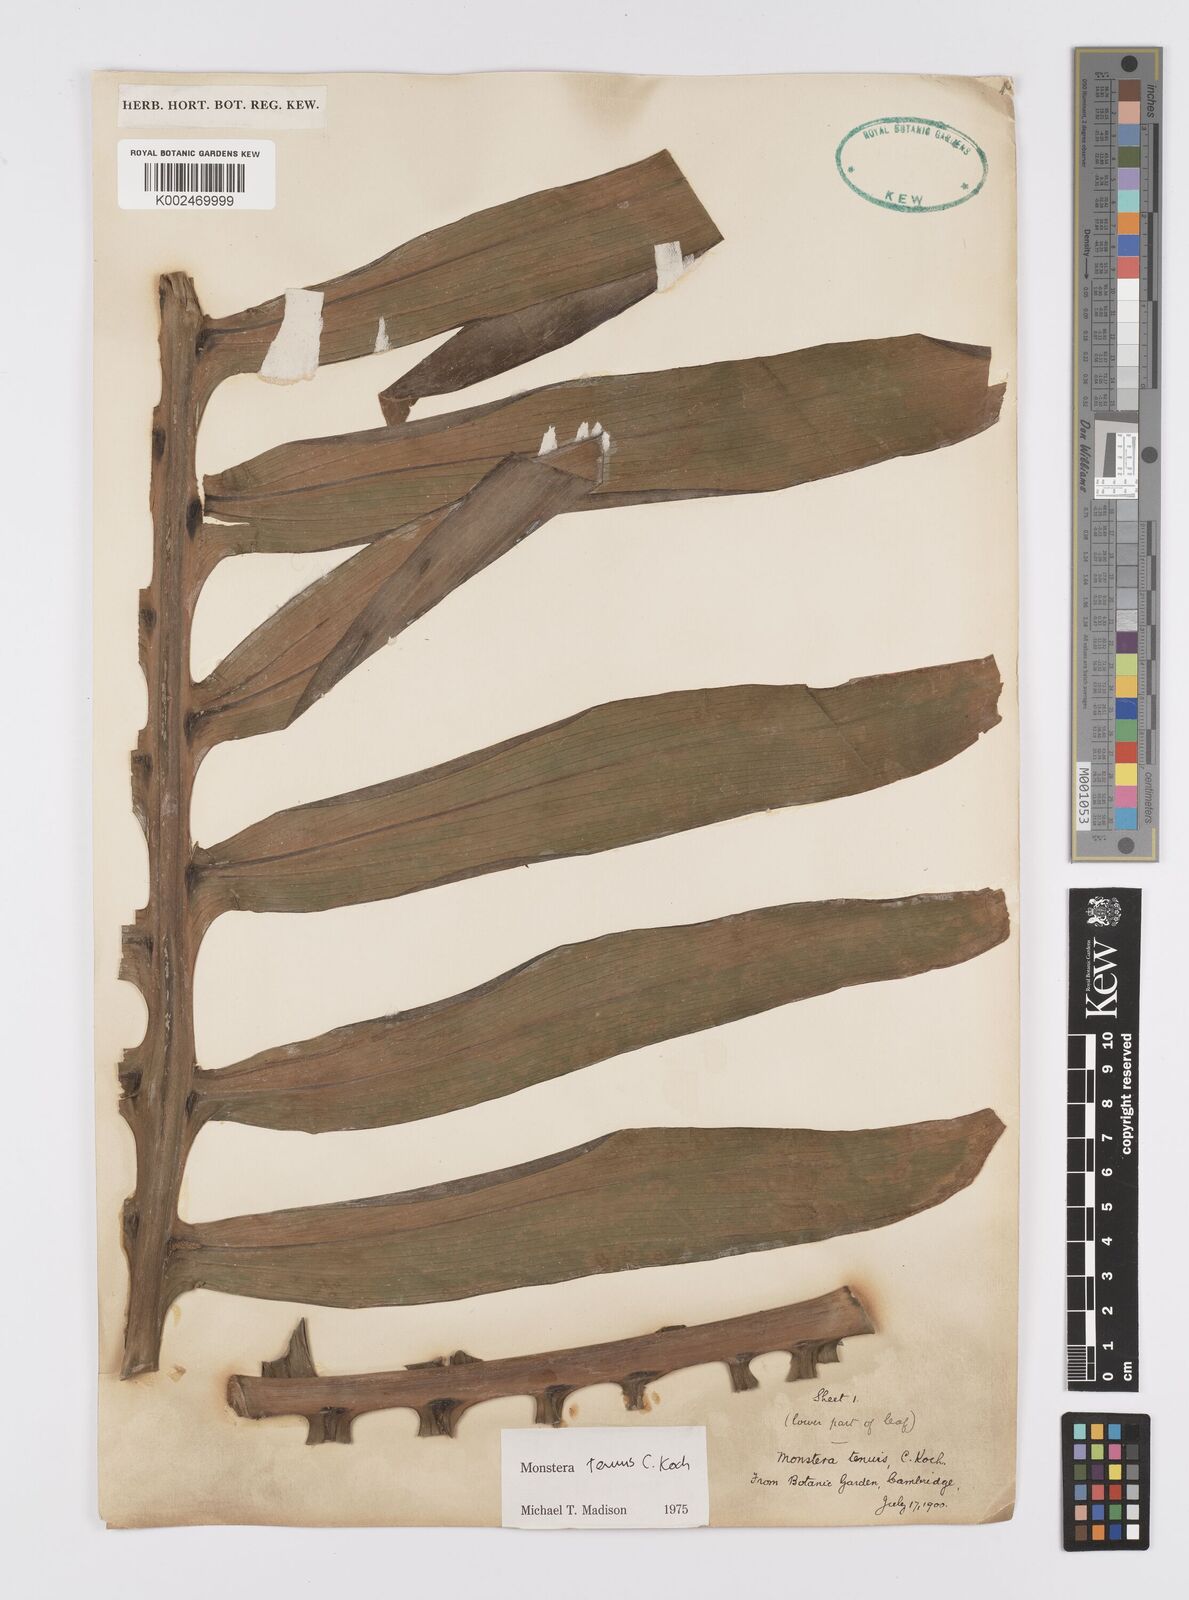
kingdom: Plantae
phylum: Tracheophyta
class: Liliopsida
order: Alismatales
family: Araceae
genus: Monstera
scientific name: Monstera tenuis
